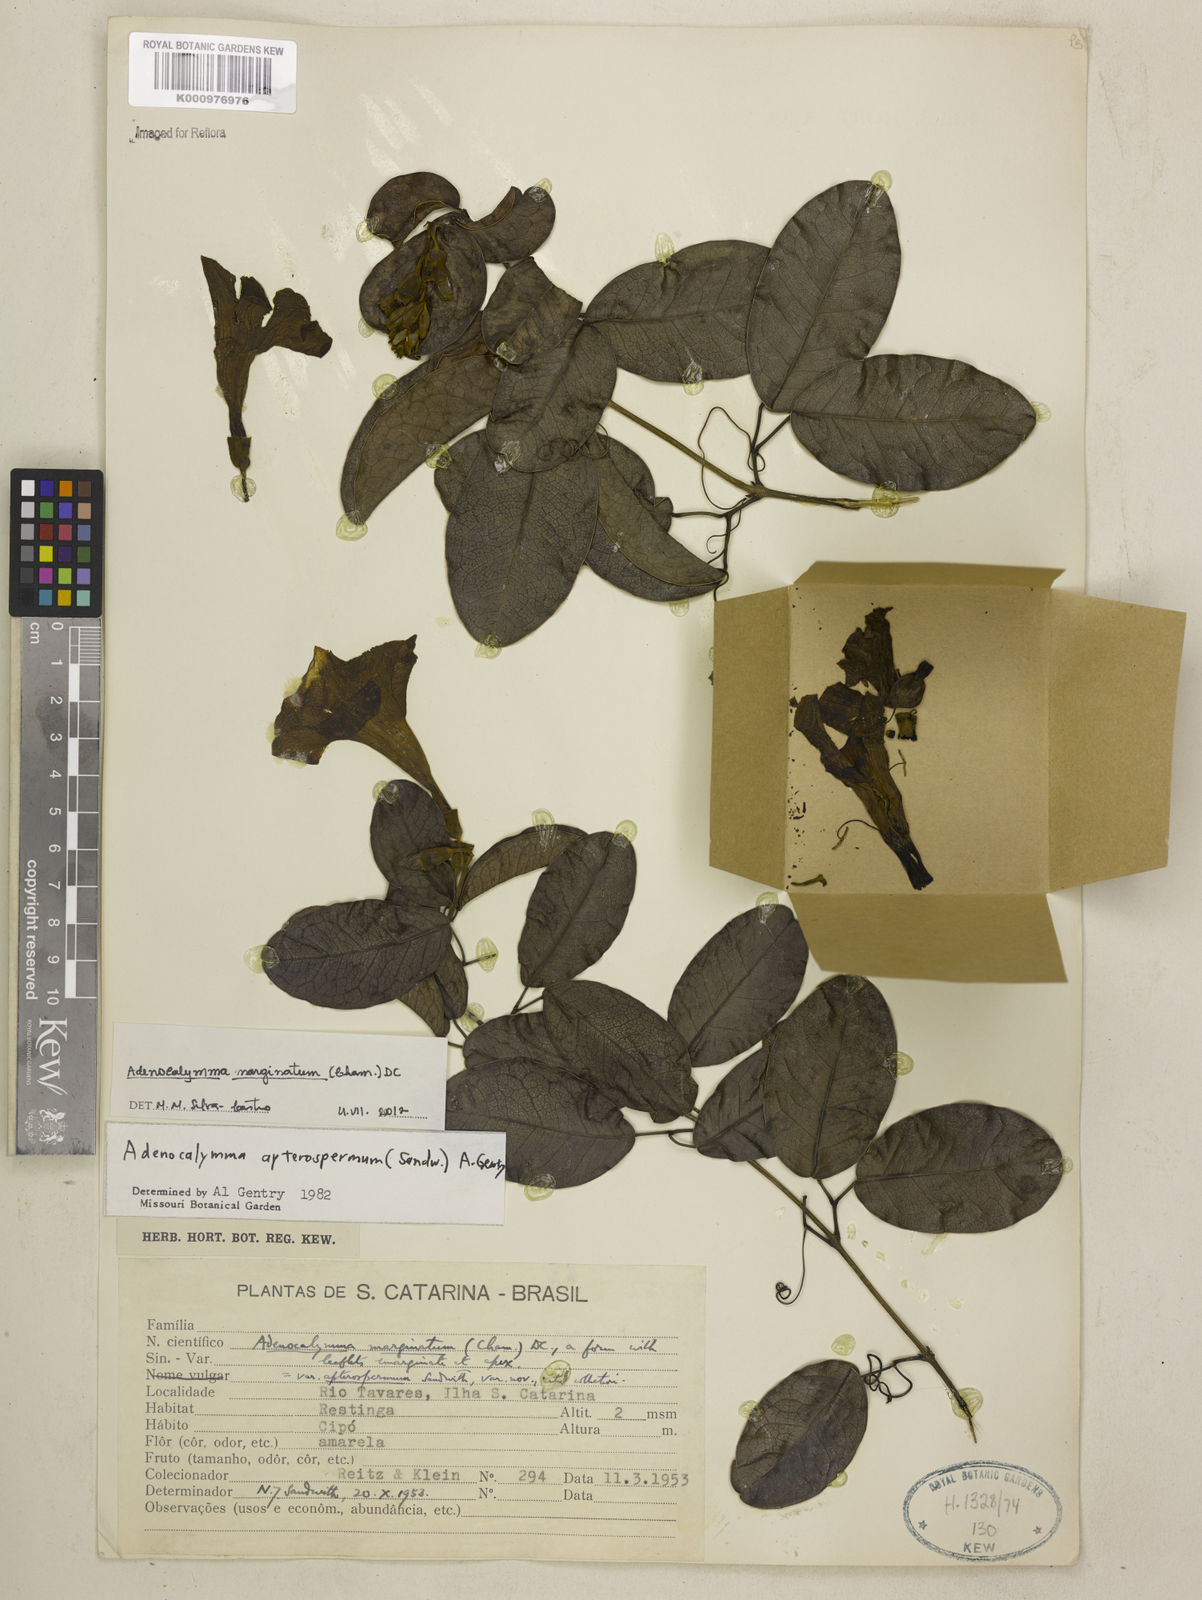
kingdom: Plantae
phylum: Tracheophyta
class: Magnoliopsida
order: Lamiales
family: Bignoniaceae
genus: Adenocalymma
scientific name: Adenocalymma marginatum
